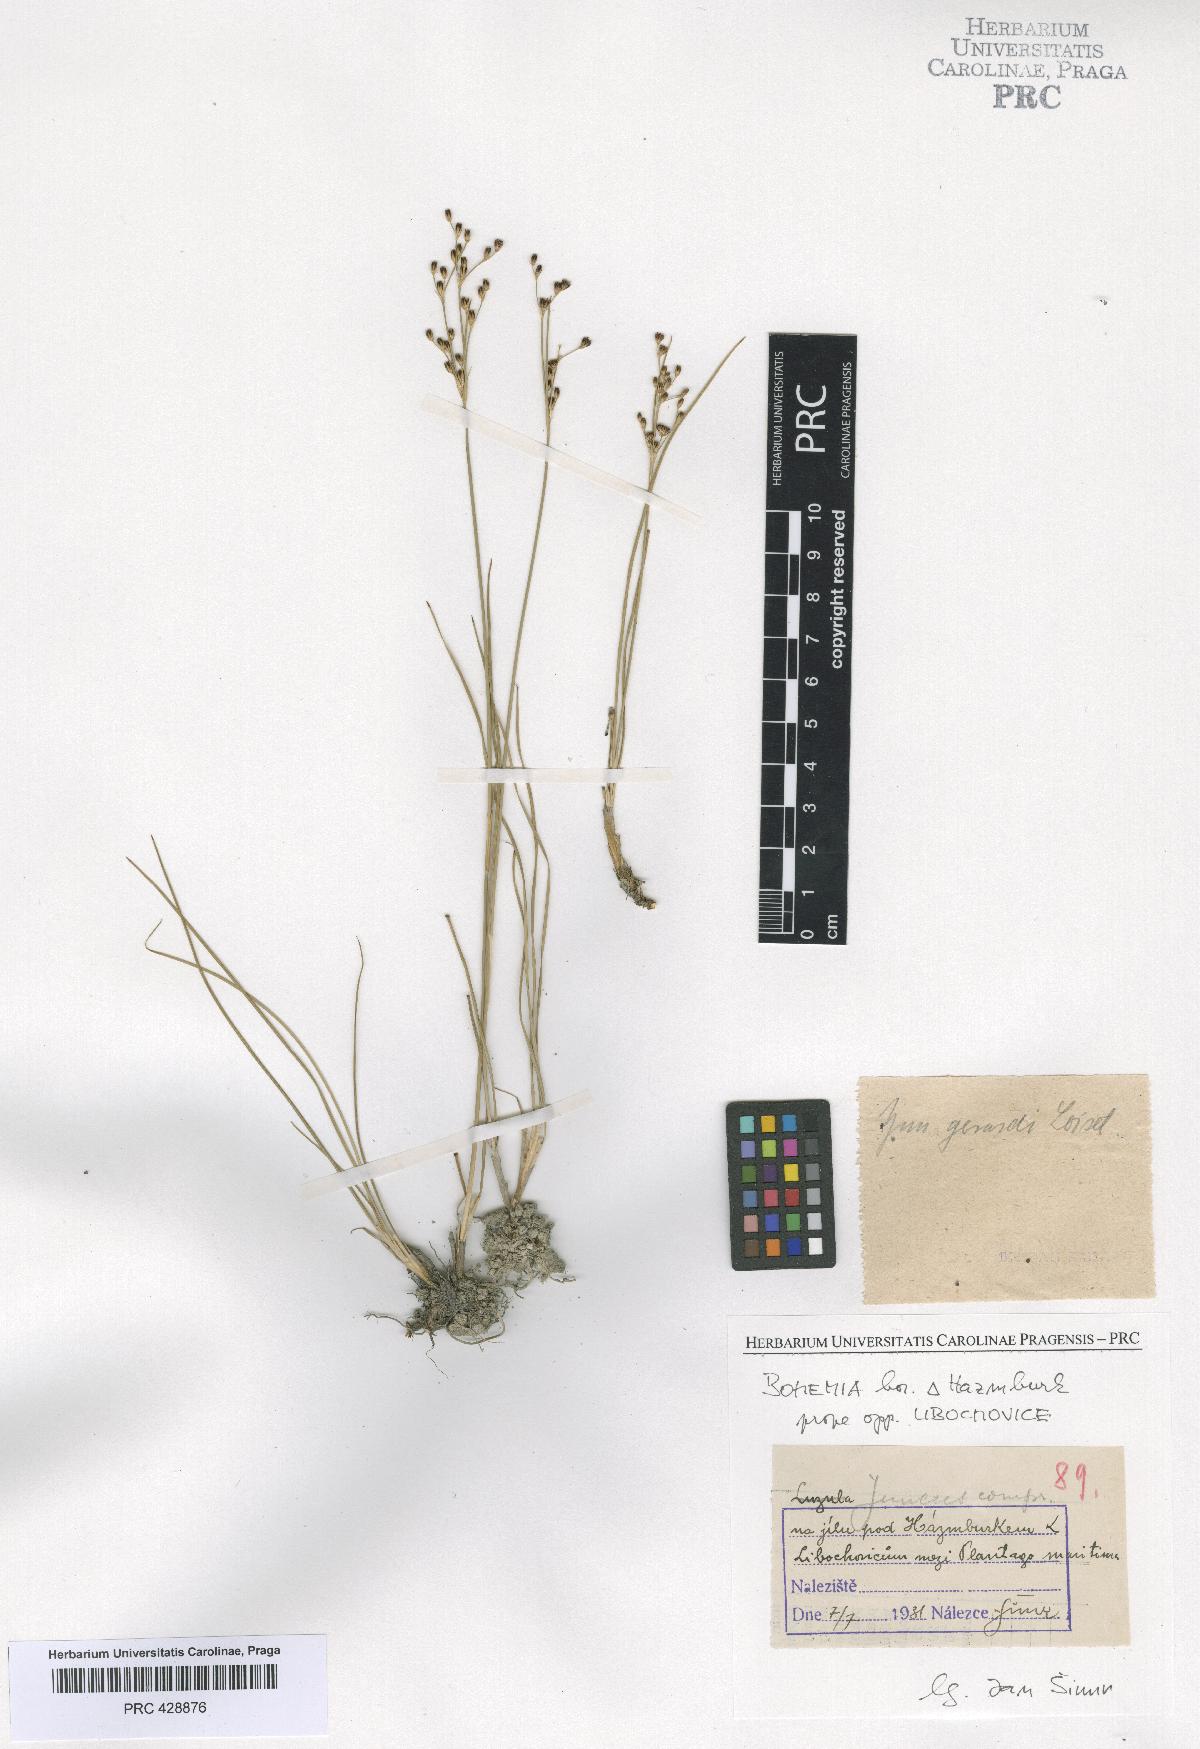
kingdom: Plantae
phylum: Tracheophyta
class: Liliopsida
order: Poales
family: Juncaceae
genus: Juncus
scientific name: Juncus gerardi
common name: Saltmarsh rush
